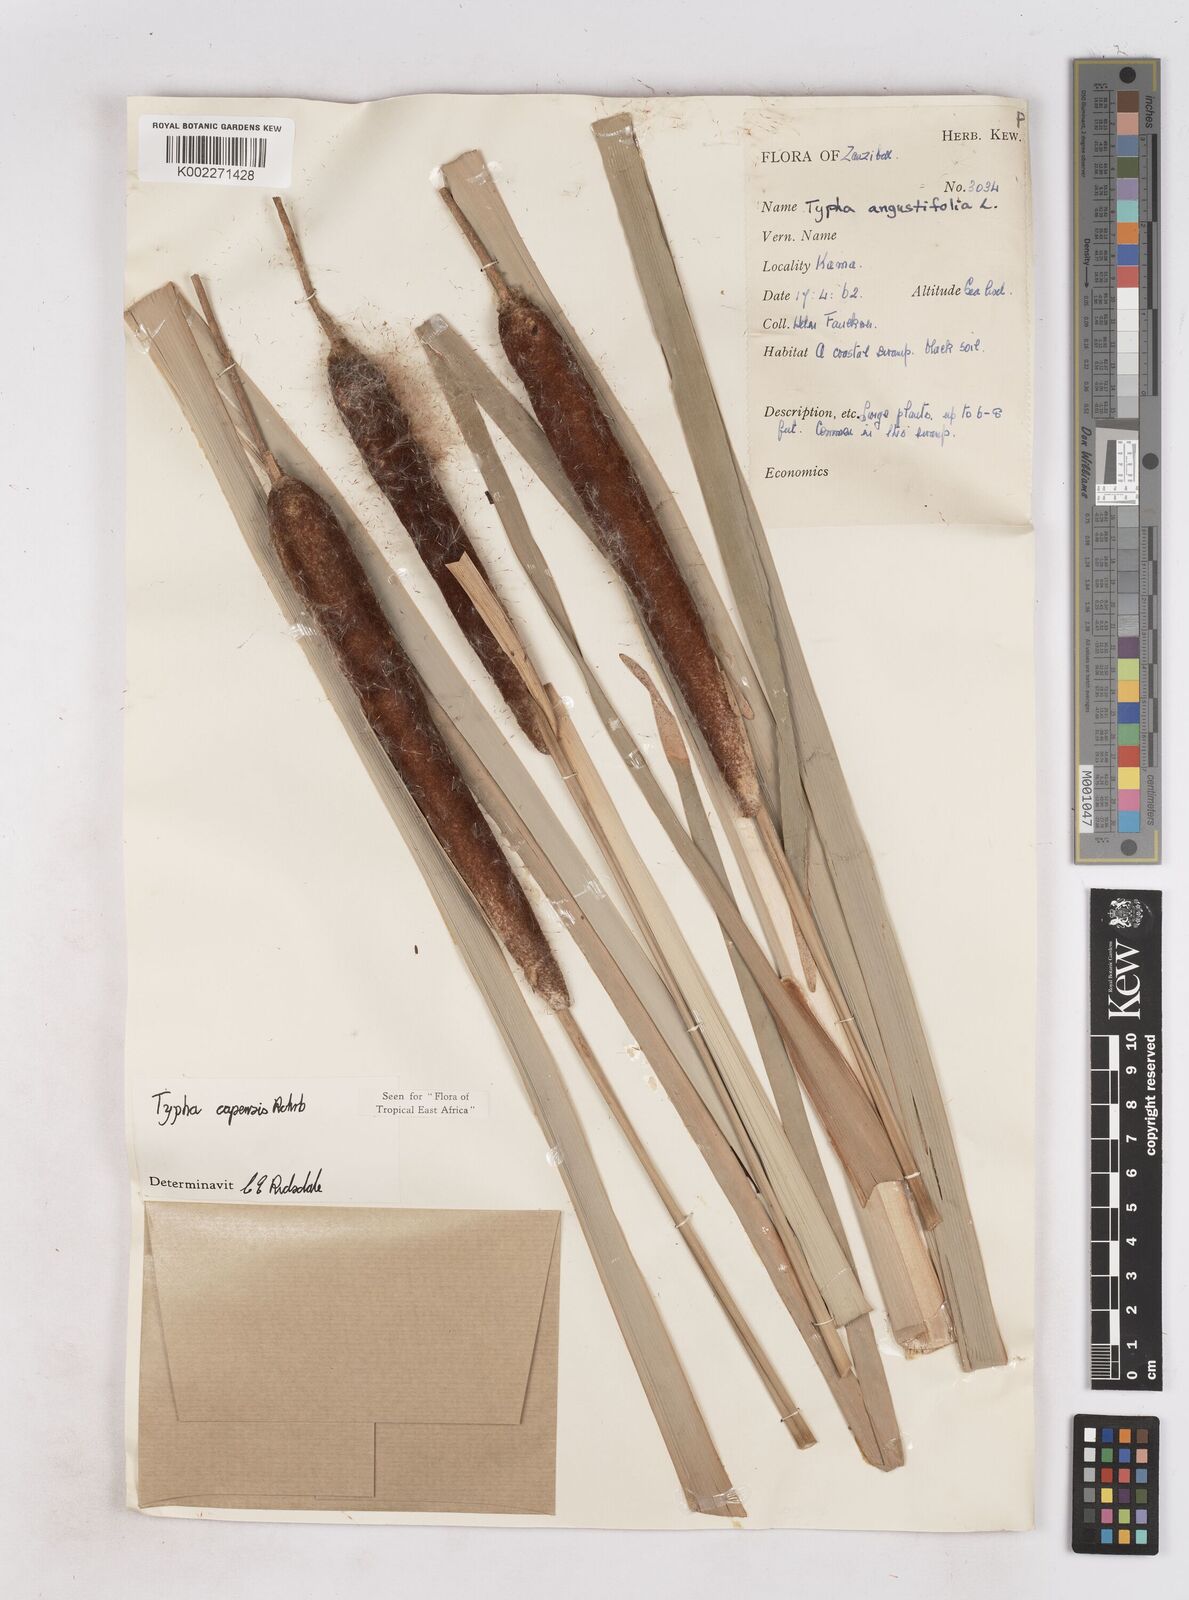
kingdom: Plantae
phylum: Tracheophyta
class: Liliopsida
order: Poales
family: Typhaceae
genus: Typha
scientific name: Typha capensis
